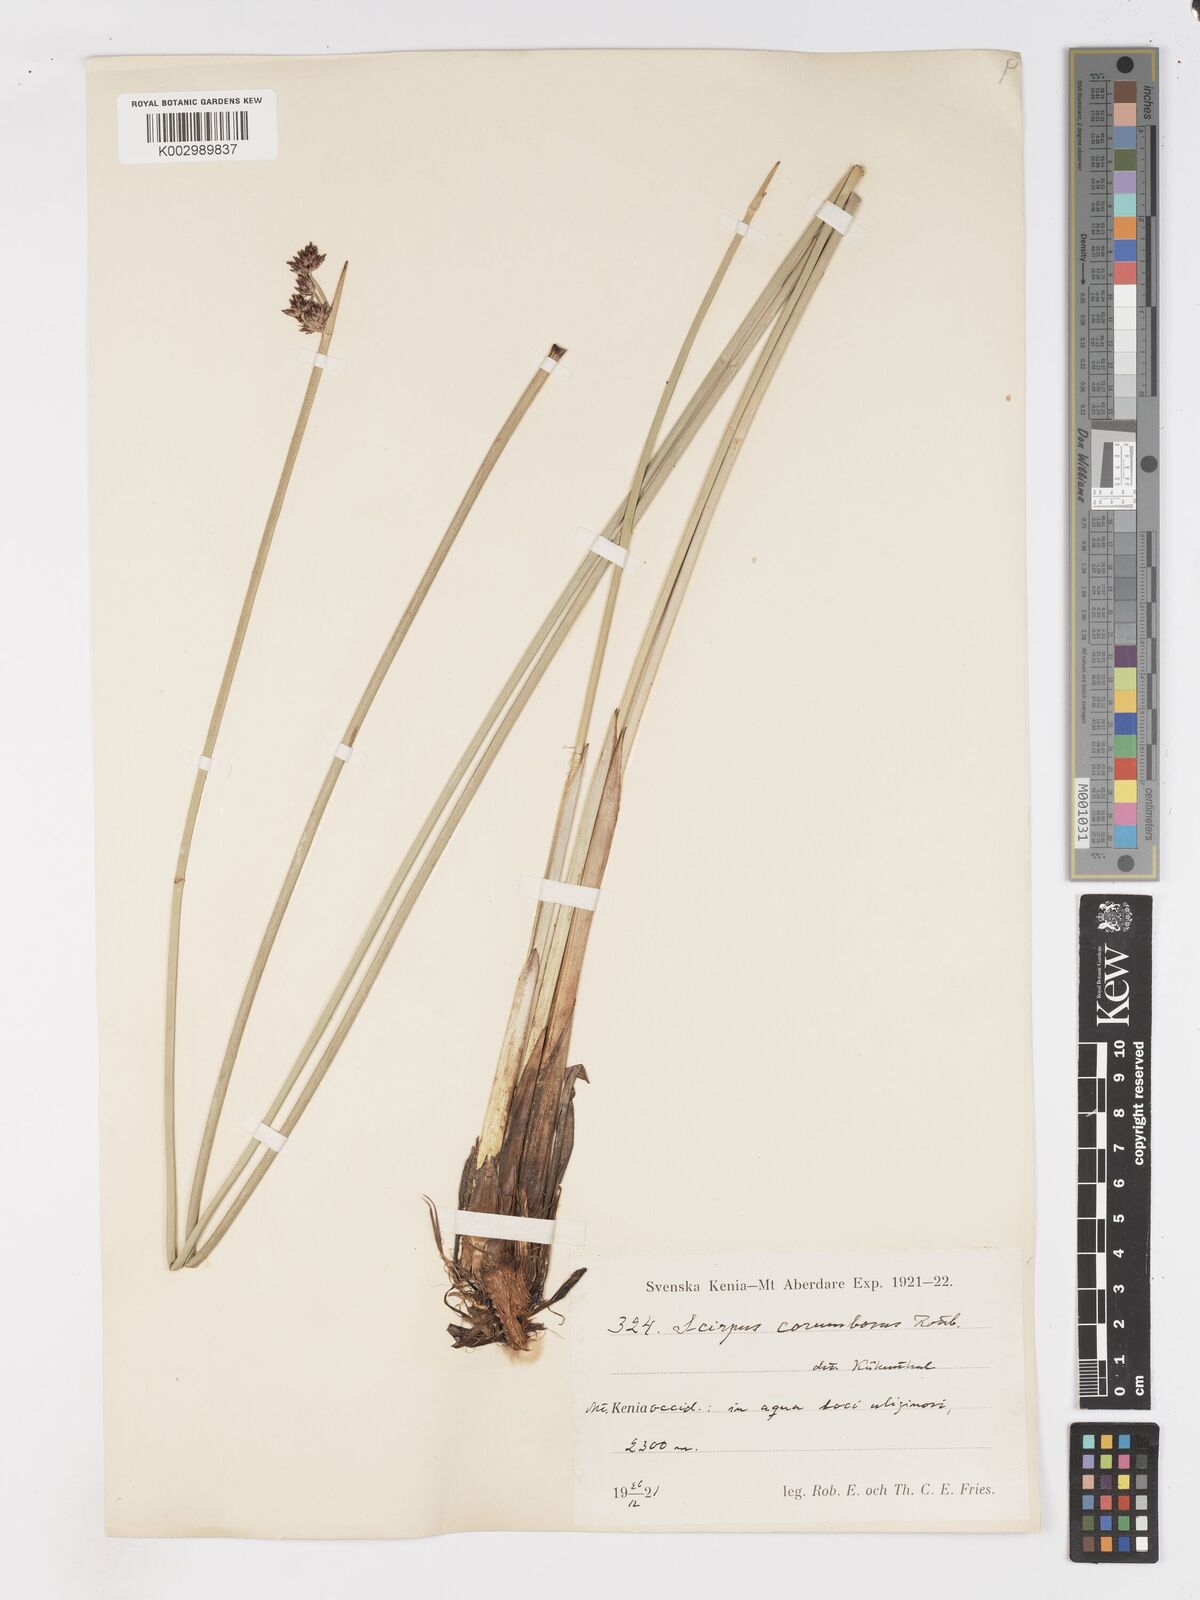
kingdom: Plantae
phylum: Tracheophyta
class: Liliopsida
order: Poales
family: Cyperaceae
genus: Schoenoplectiella
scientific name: Schoenoplectiella corymbosa
